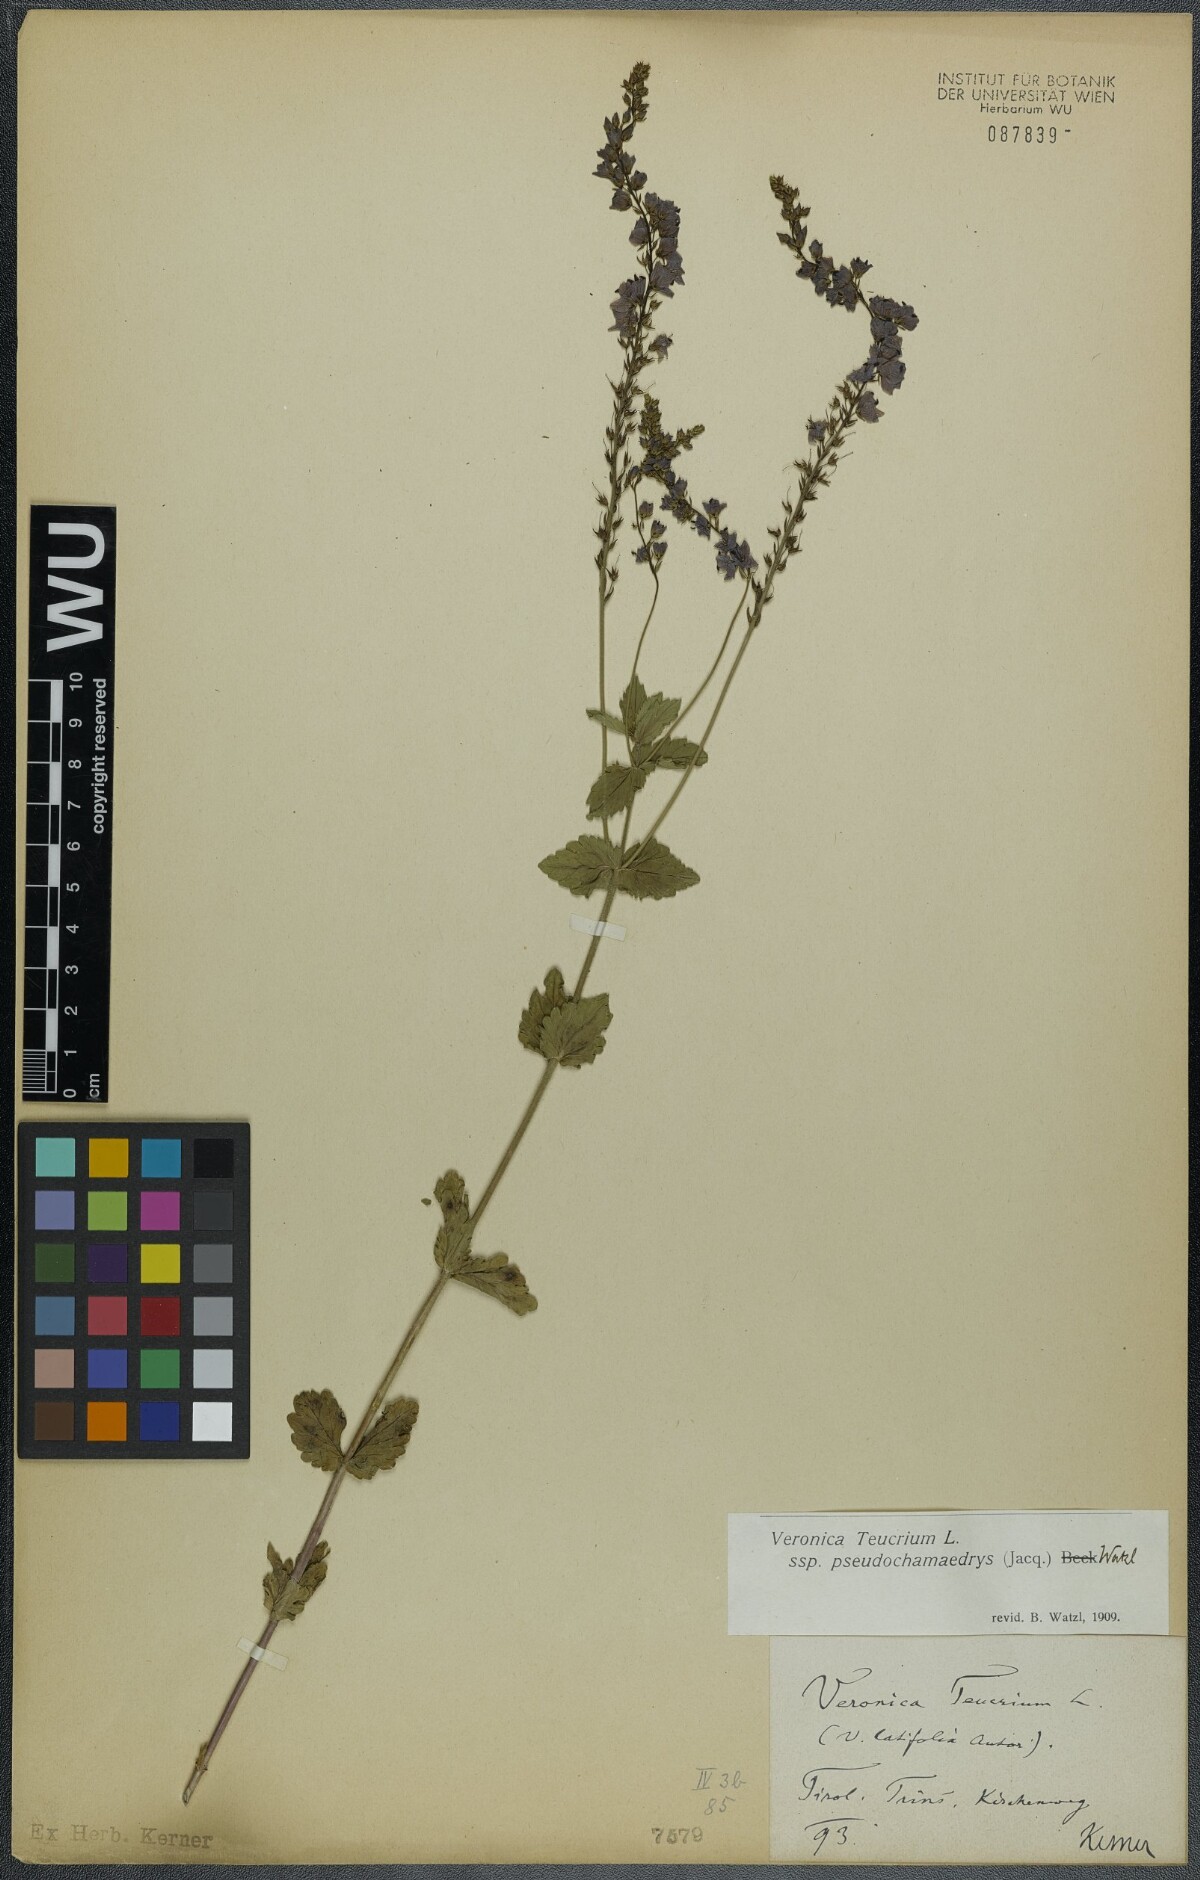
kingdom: Plantae
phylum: Tracheophyta
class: Magnoliopsida
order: Lamiales
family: Plantaginaceae
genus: Veronica
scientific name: Veronica teucrium
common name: Large speedwell
